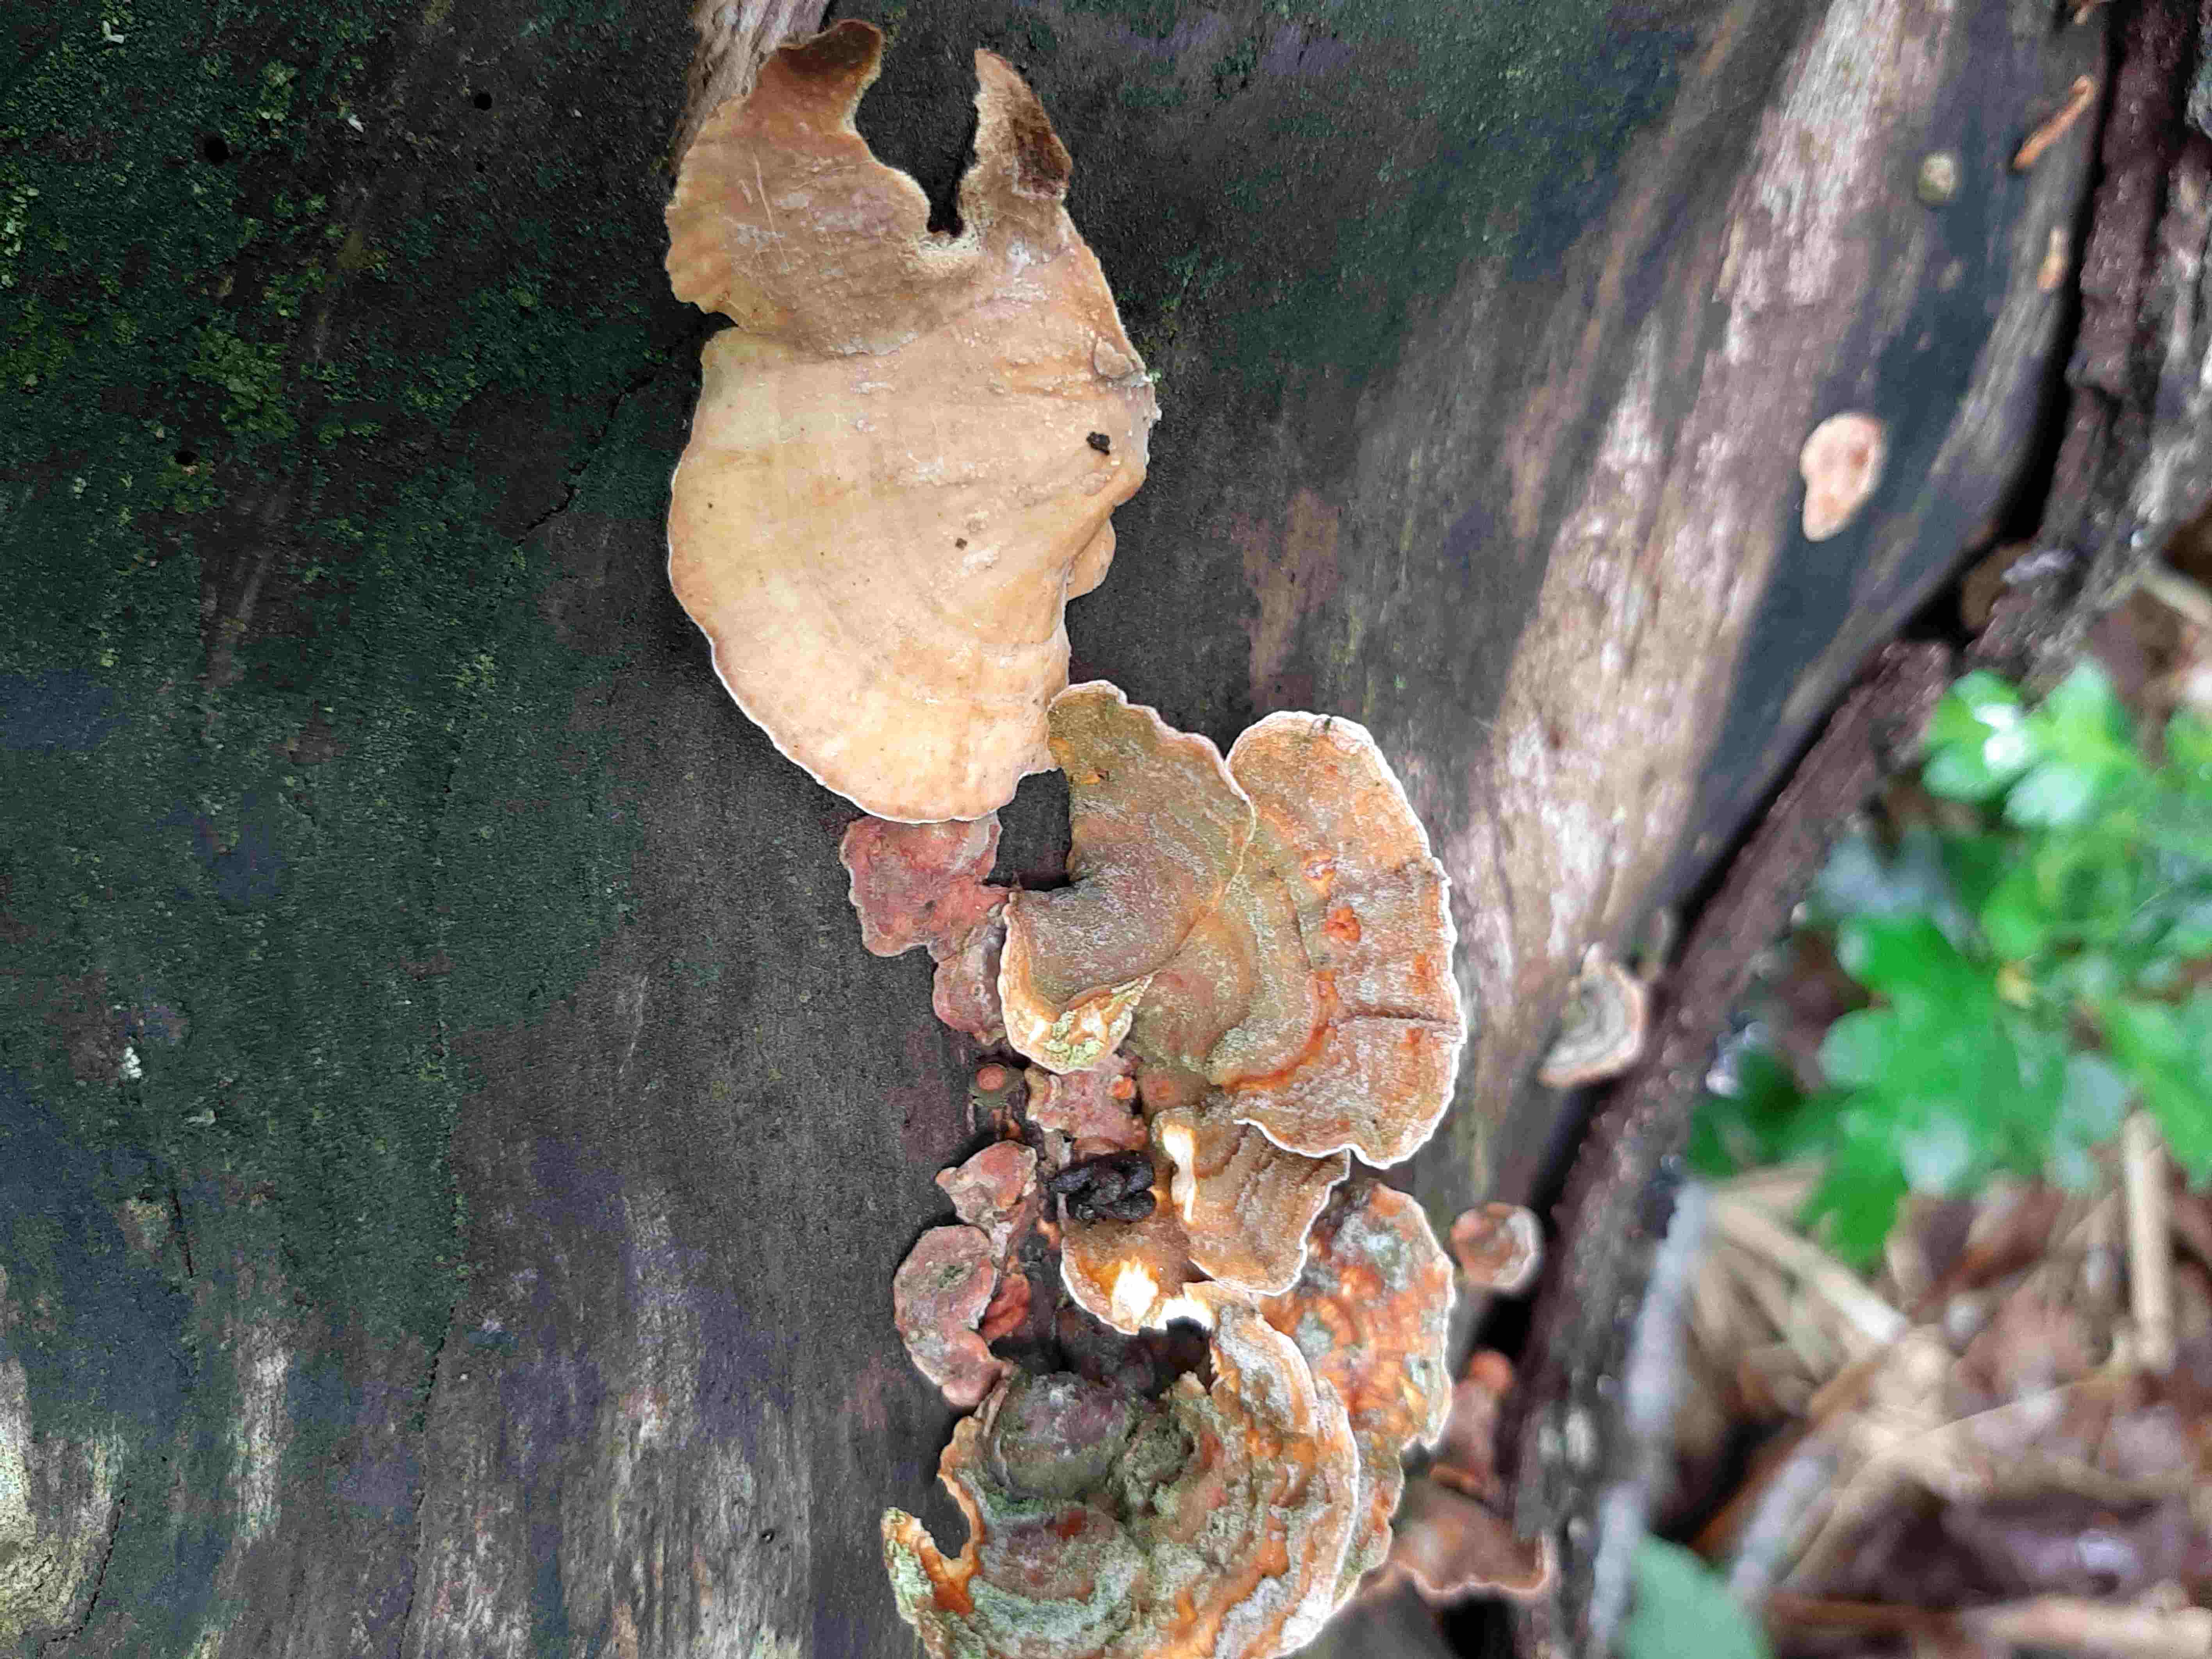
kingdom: Fungi
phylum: Basidiomycota
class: Agaricomycetes
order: Russulales
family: Stereaceae
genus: Stereum
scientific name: Stereum subtomentosum
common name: smuk lædersvamp
